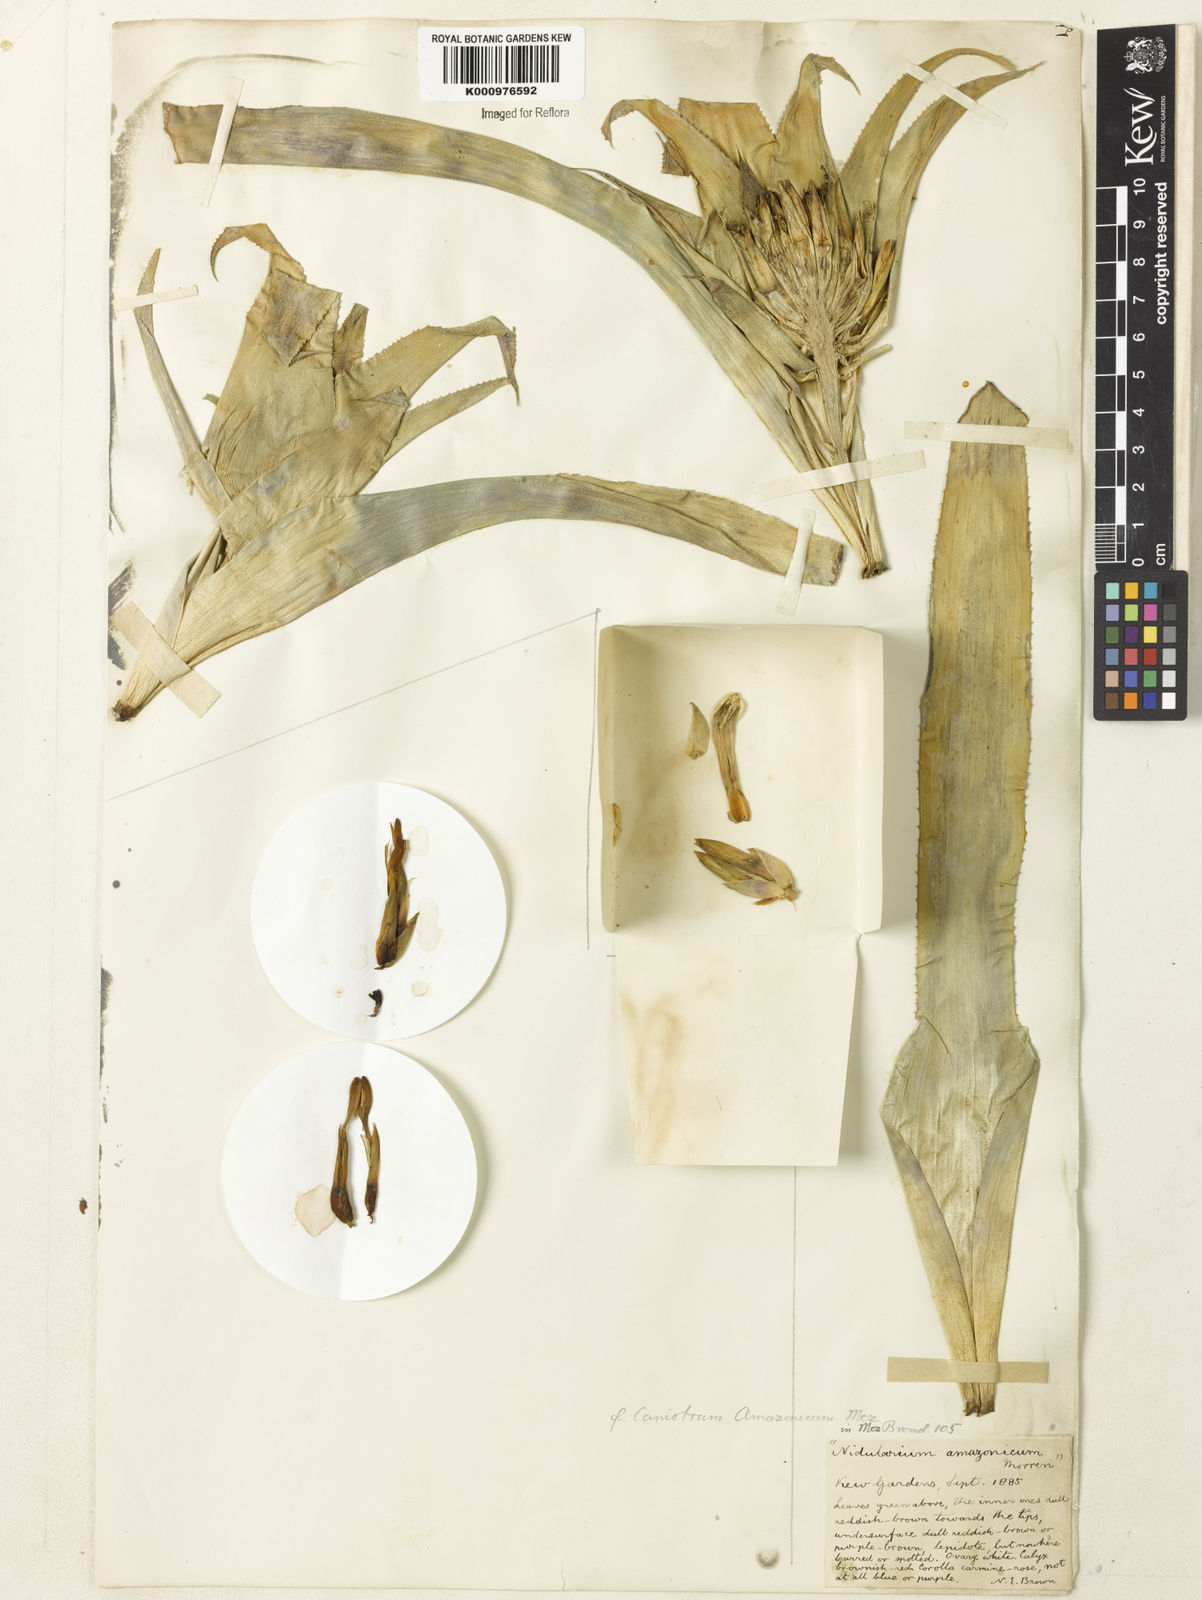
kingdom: Plantae
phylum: Tracheophyta
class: Liliopsida
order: Poales
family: Bromeliaceae
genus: Nidularium
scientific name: Nidularium amazonicum
